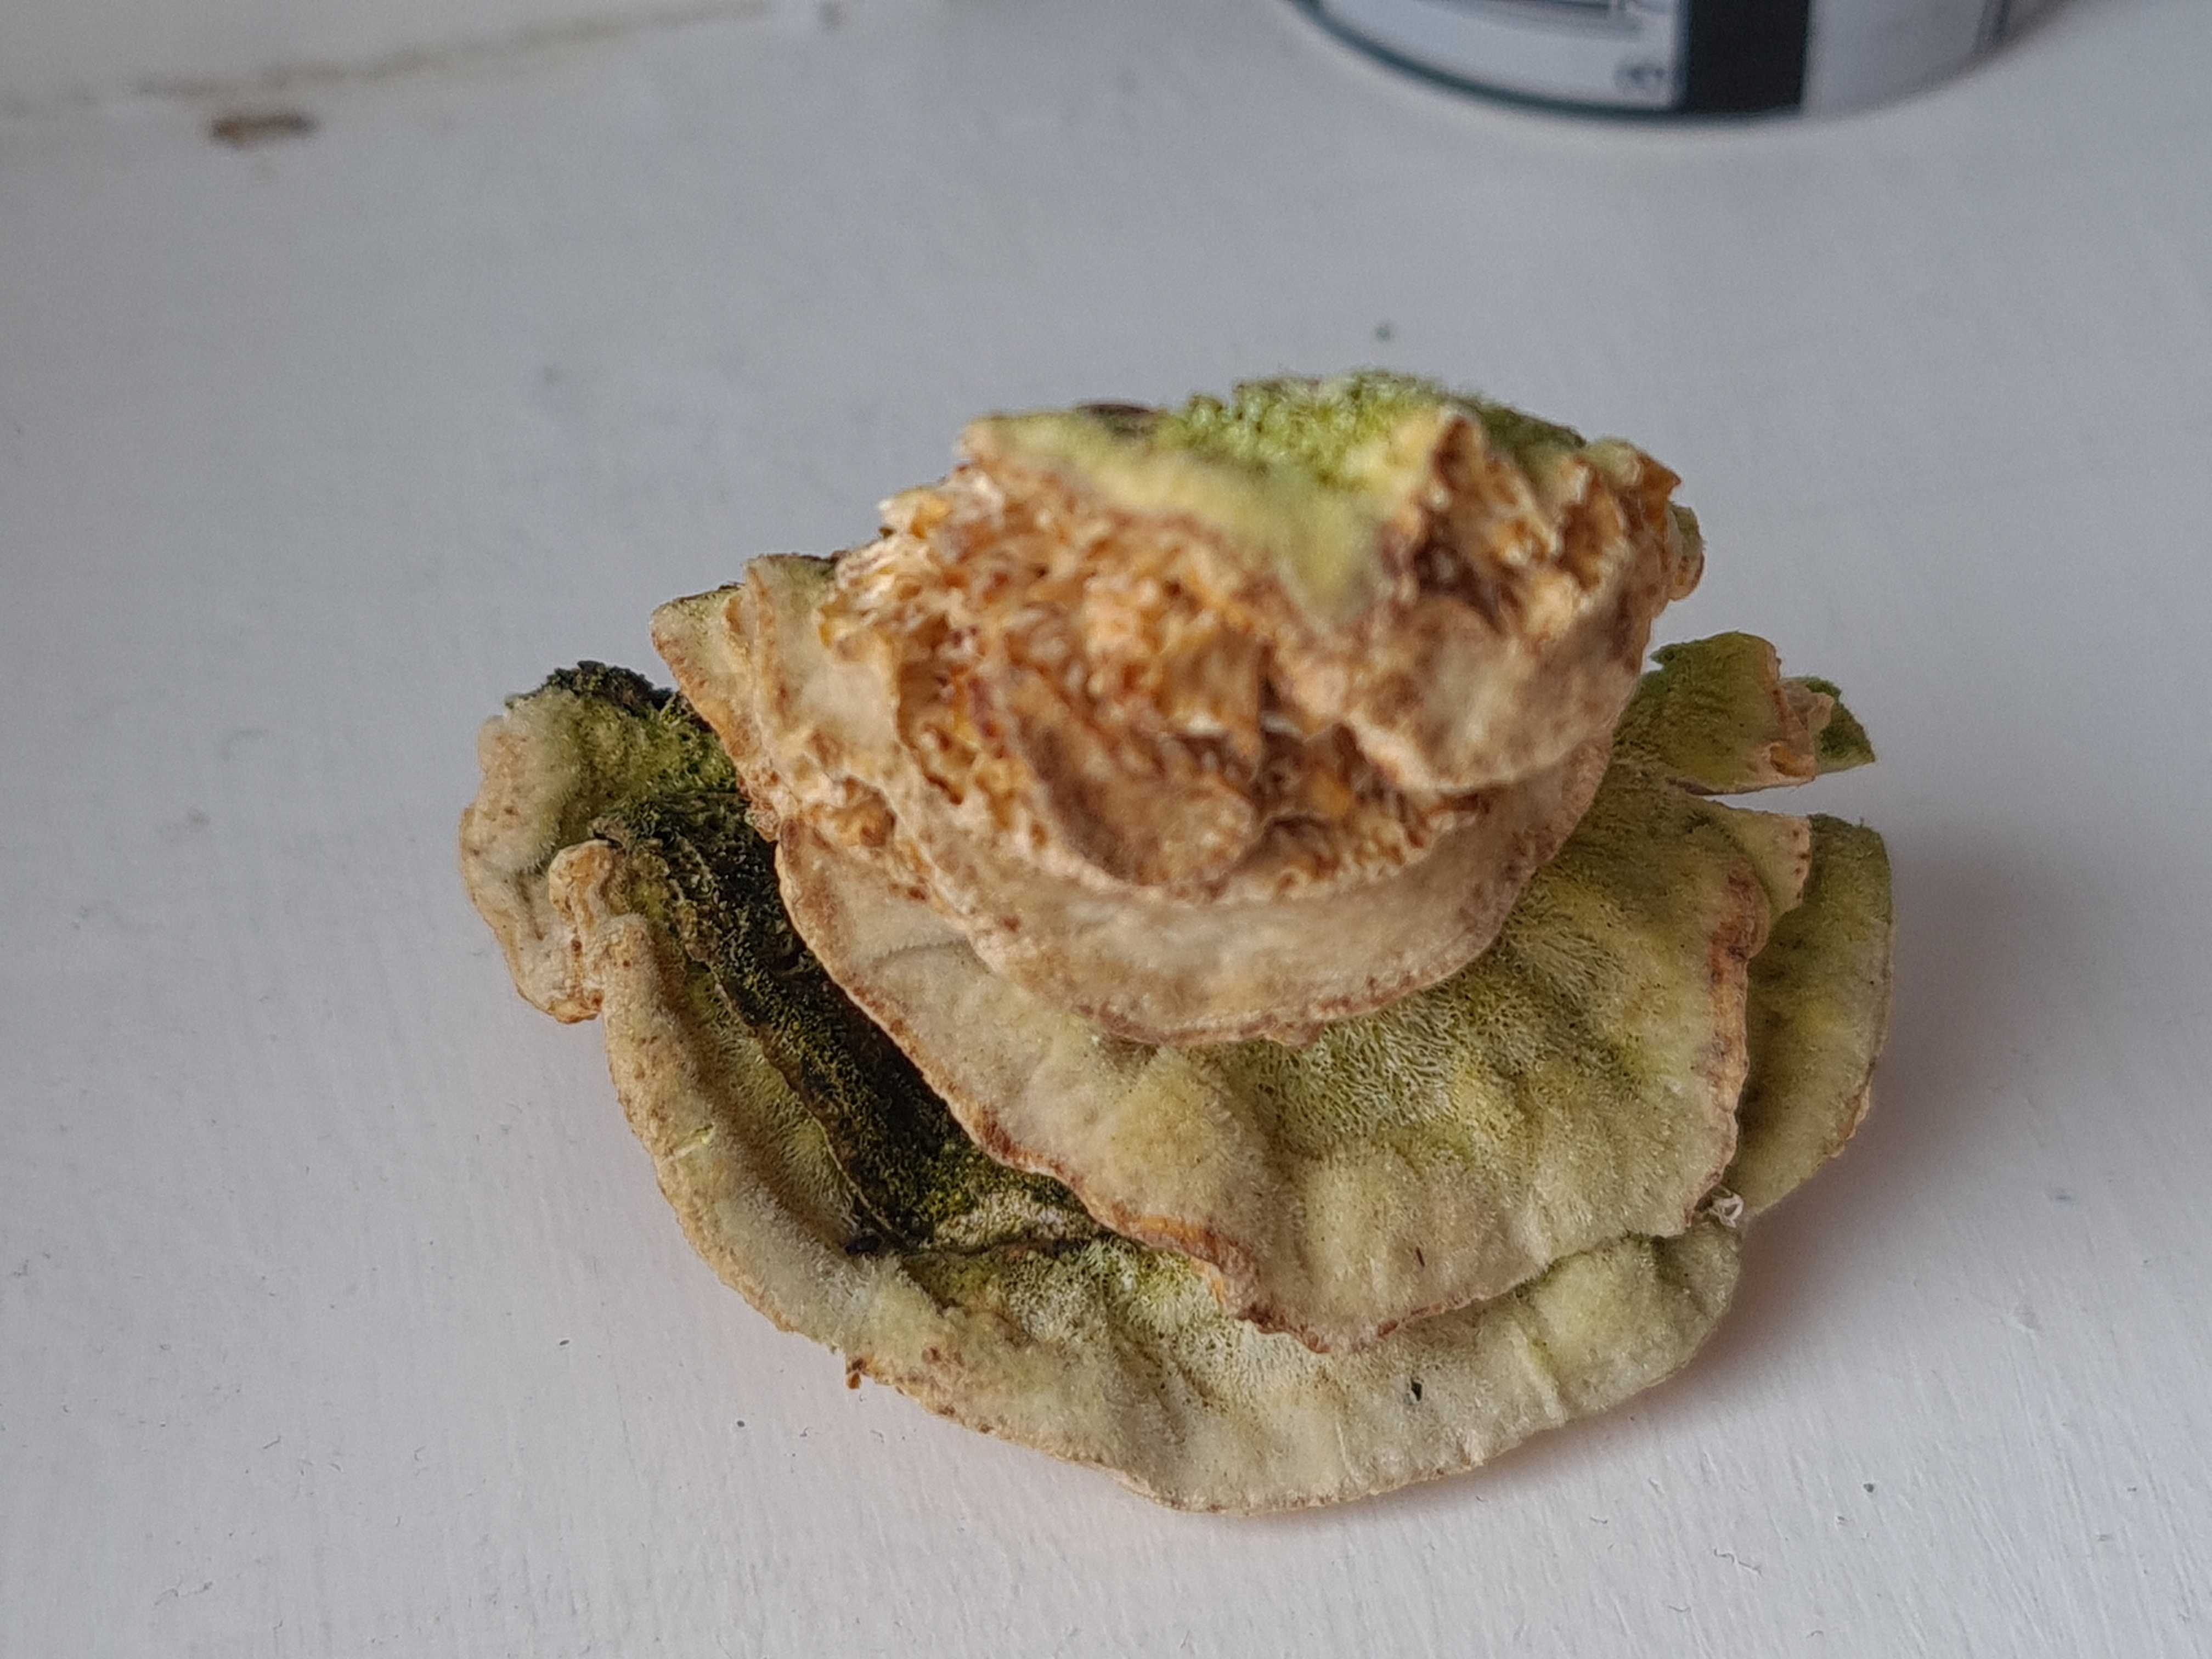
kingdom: Fungi
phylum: Basidiomycota
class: Agaricomycetes
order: Polyporales
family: Polyporaceae
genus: Trametes
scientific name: Trametes hirsuta
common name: håret læderporesvamp
